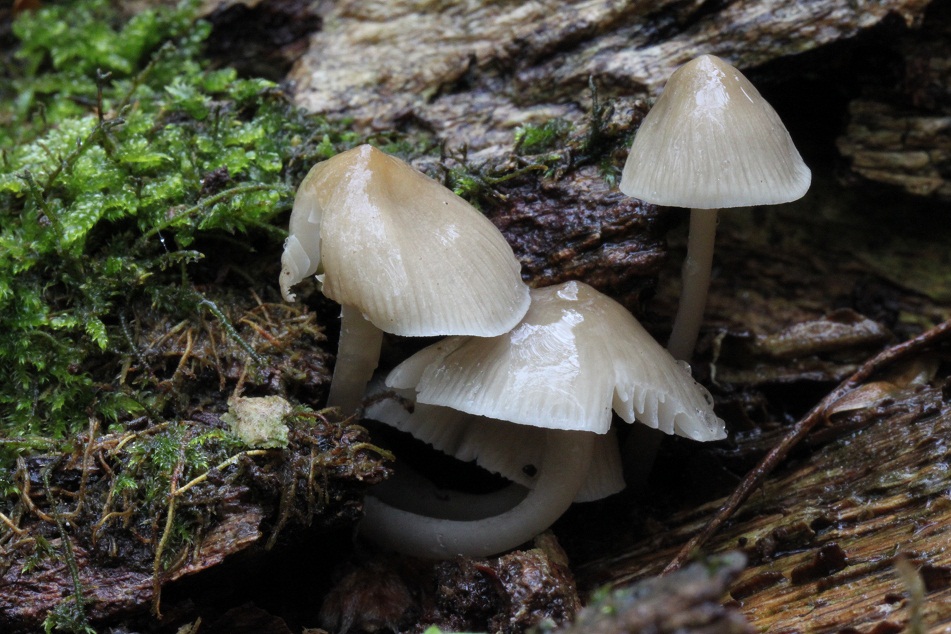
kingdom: Fungi
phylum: Basidiomycota
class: Agaricomycetes
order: Agaricales
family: Mycenaceae
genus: Mycena
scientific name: Mycena galericulata
